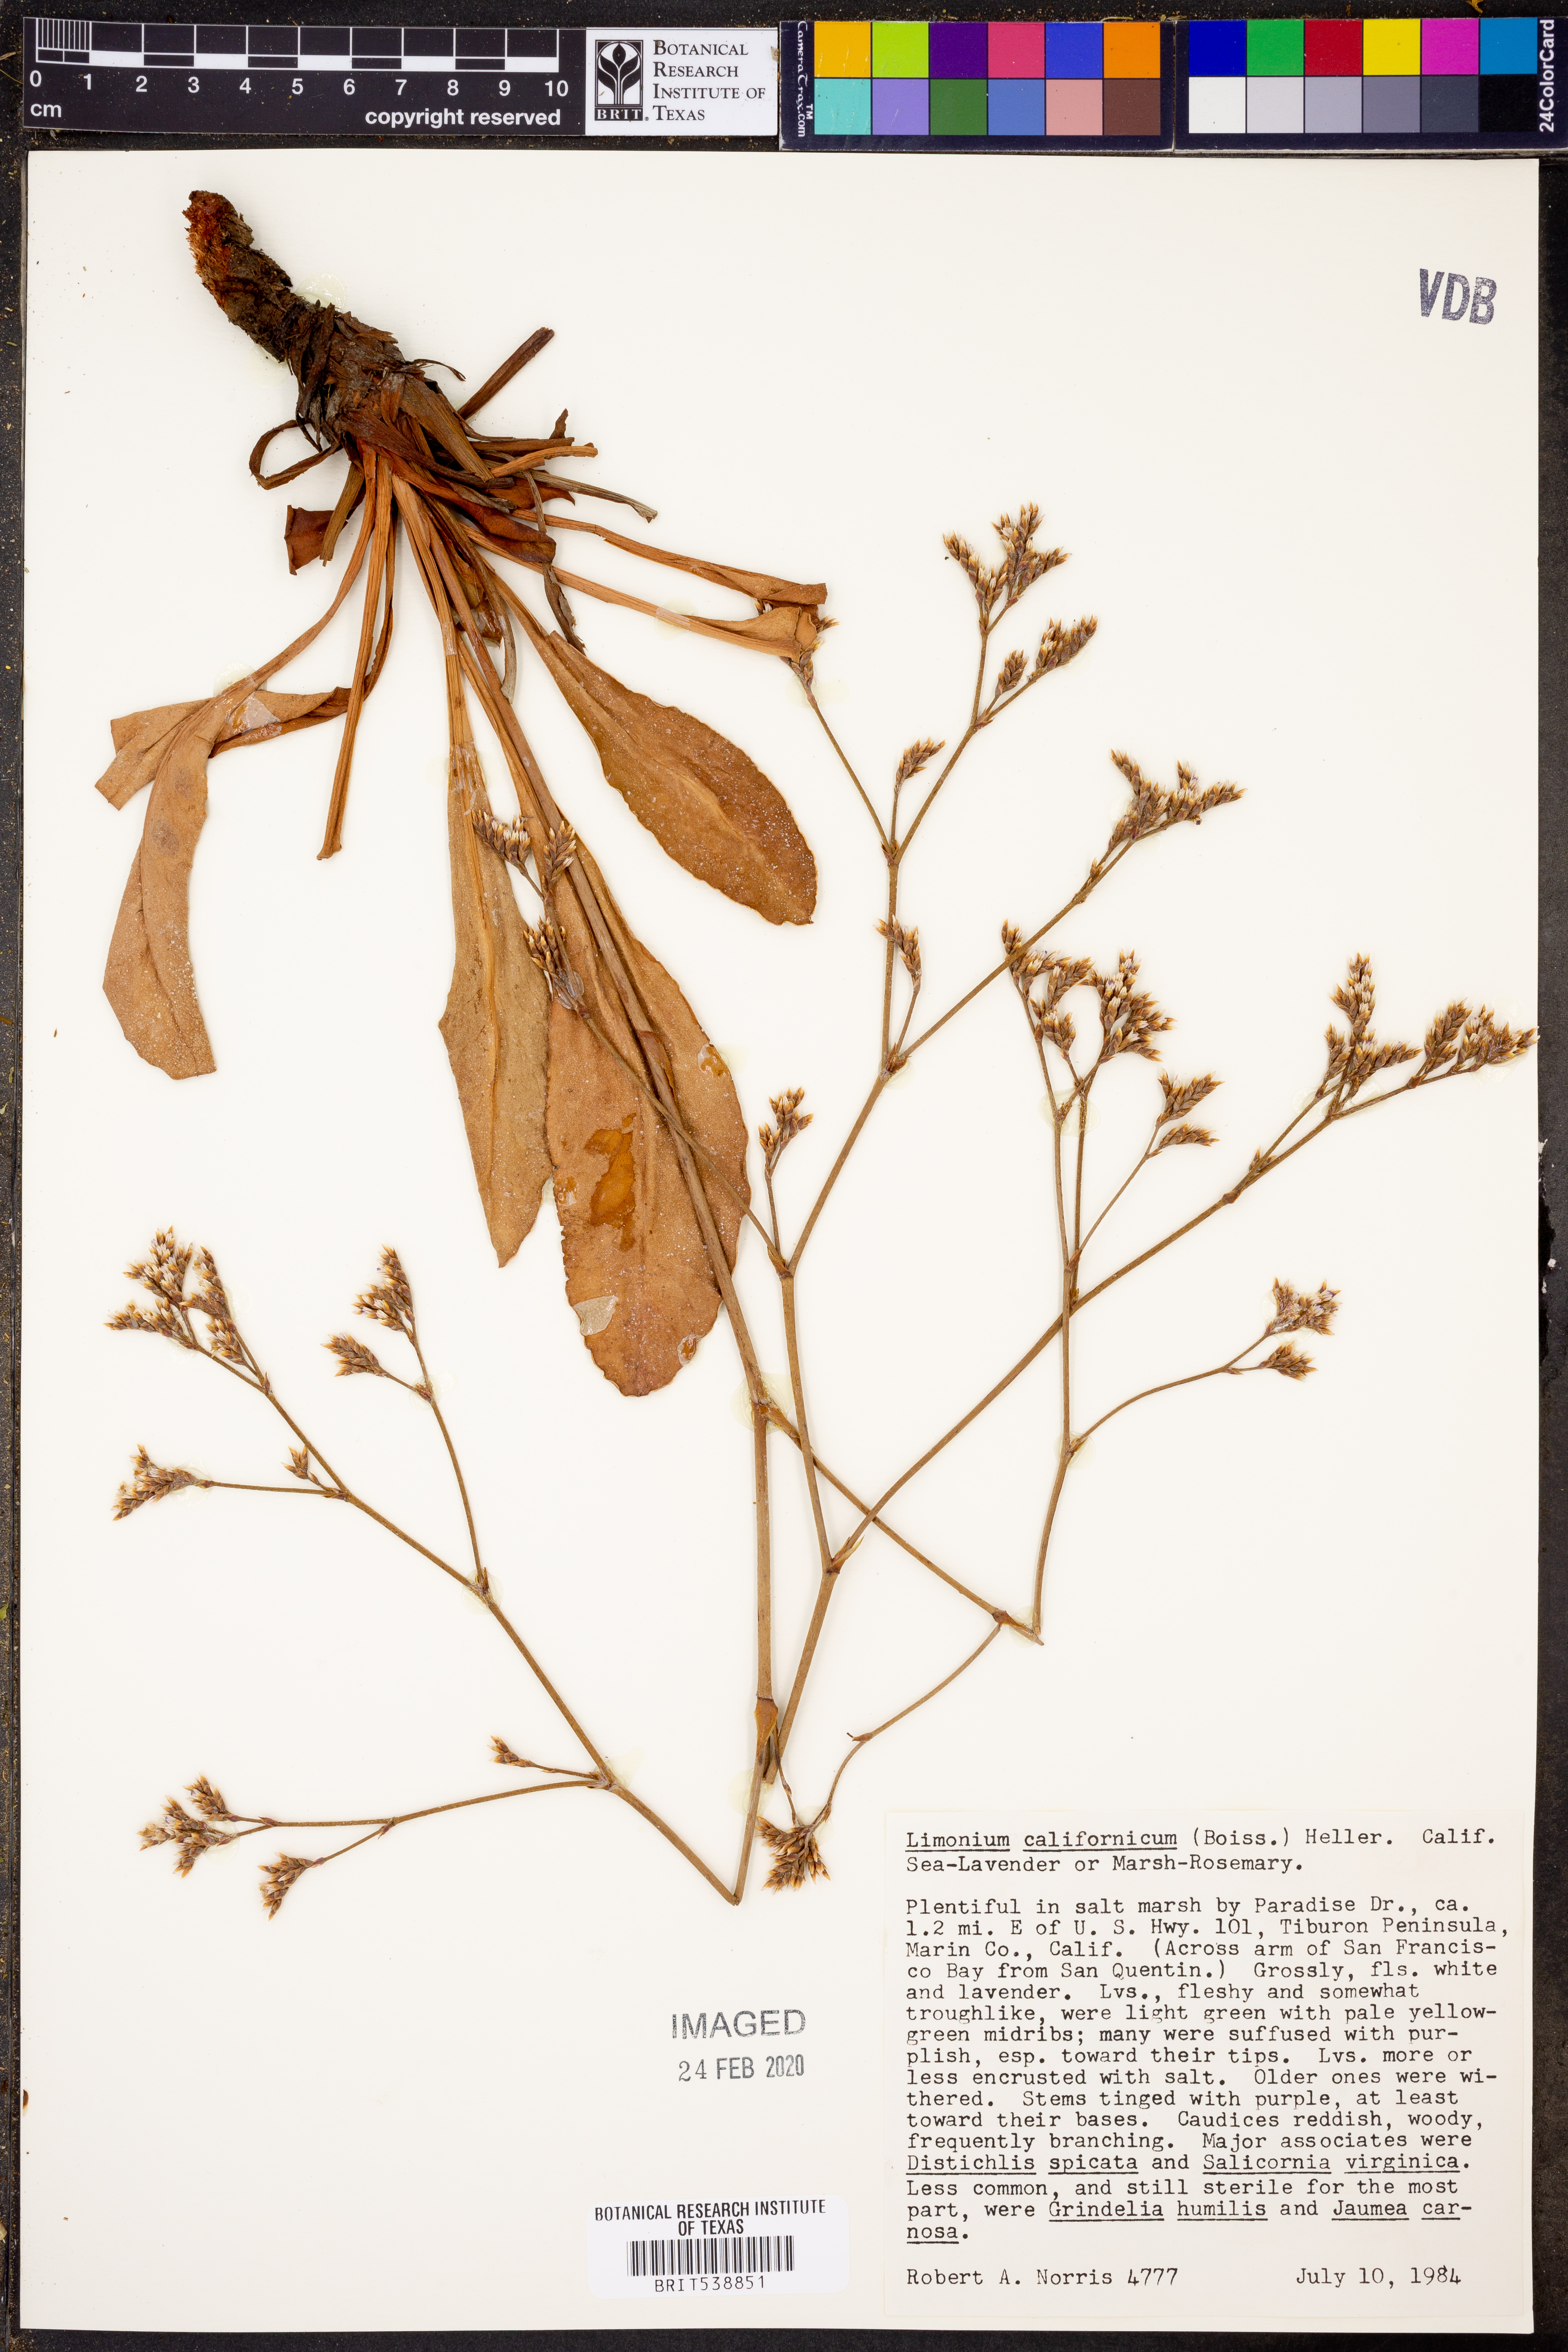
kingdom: Plantae
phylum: Tracheophyta
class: Magnoliopsida
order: Caryophyllales
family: Plumbaginaceae
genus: Limonium
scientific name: Limonium californicum
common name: Marsh-rosemary
